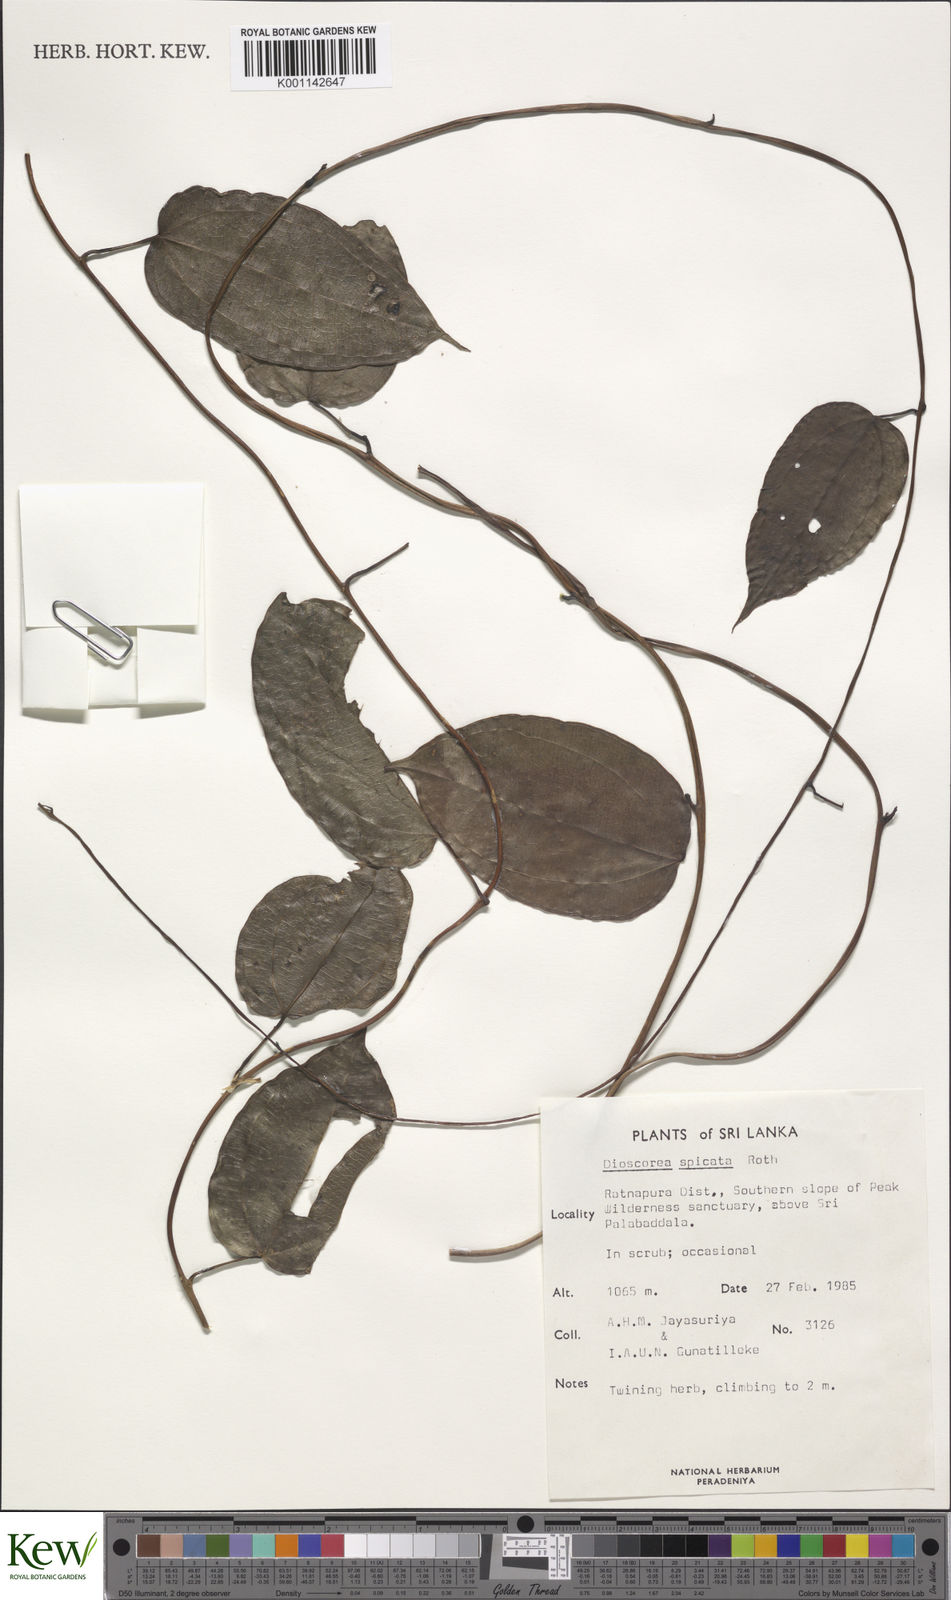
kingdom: Plantae
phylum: Tracheophyta
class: Liliopsida
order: Dioscoreales
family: Dioscoreaceae
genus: Dioscorea
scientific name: Dioscorea spicata
